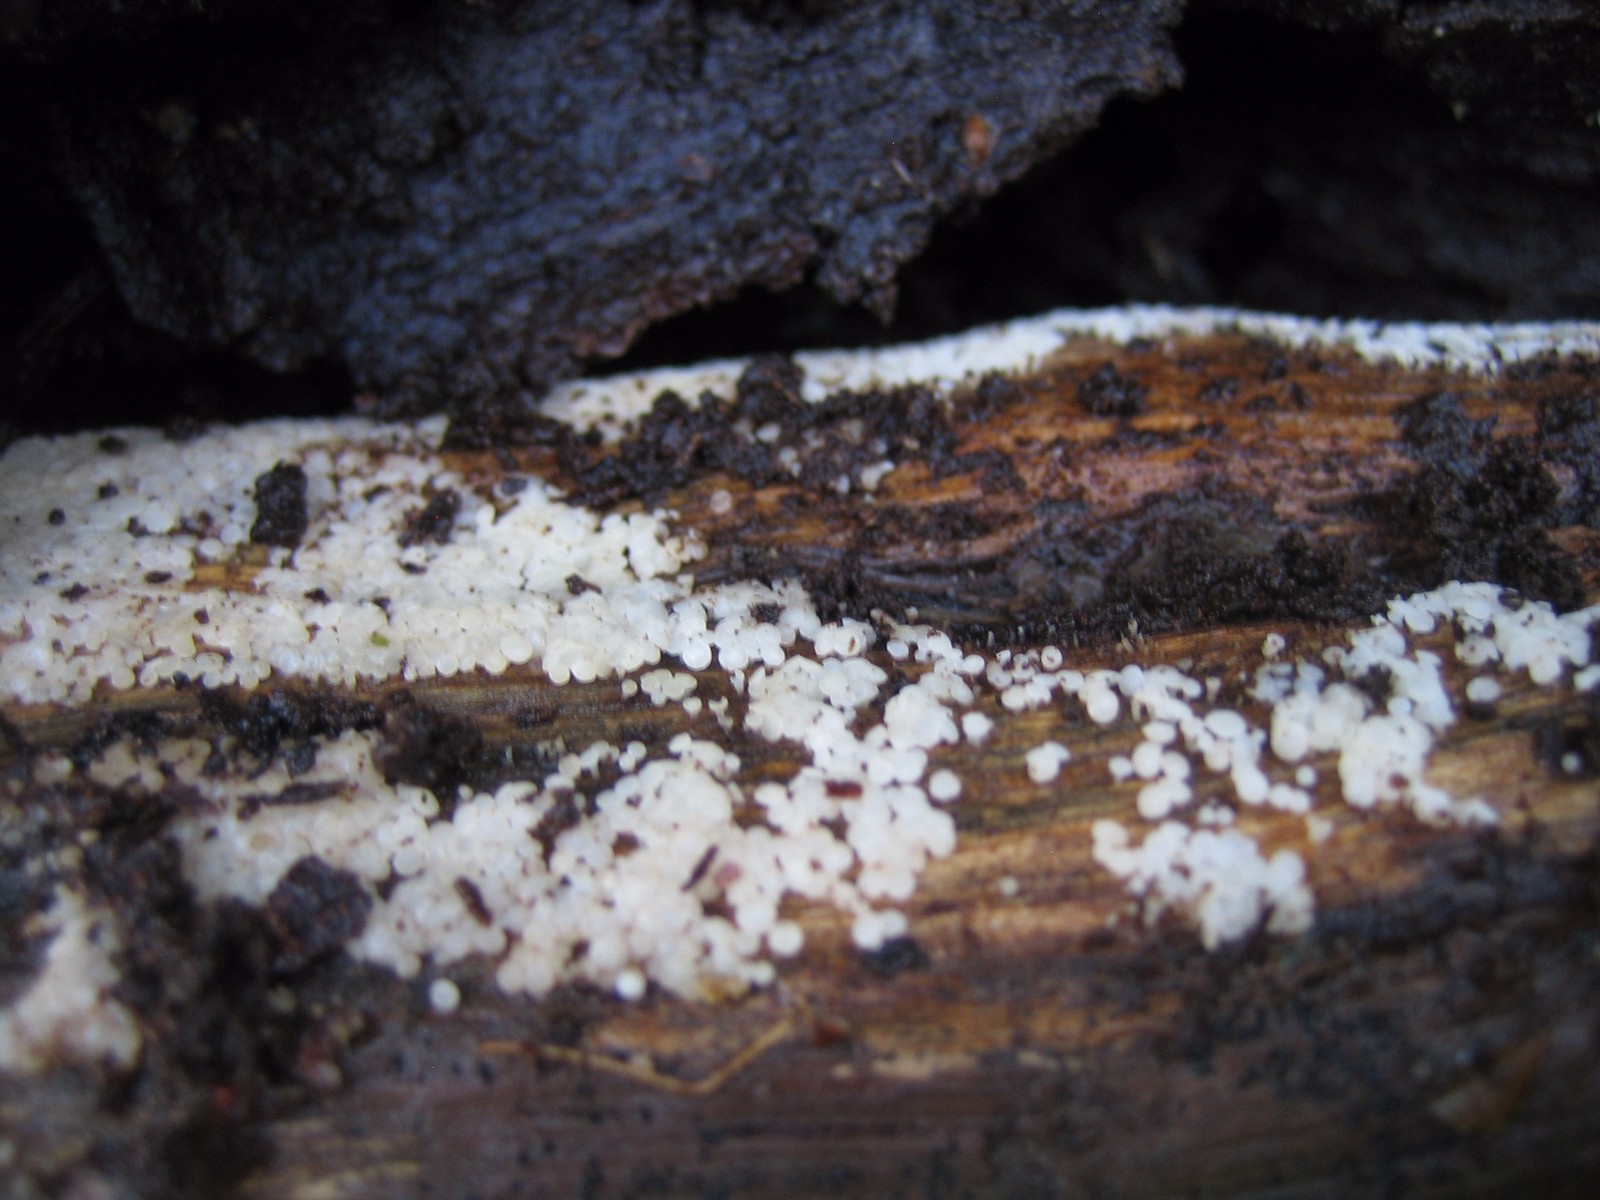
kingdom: Fungi
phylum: Ascomycota
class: Leotiomycetes
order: Helotiales
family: Pezizellaceae
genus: Calycina
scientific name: Calycina lactea
